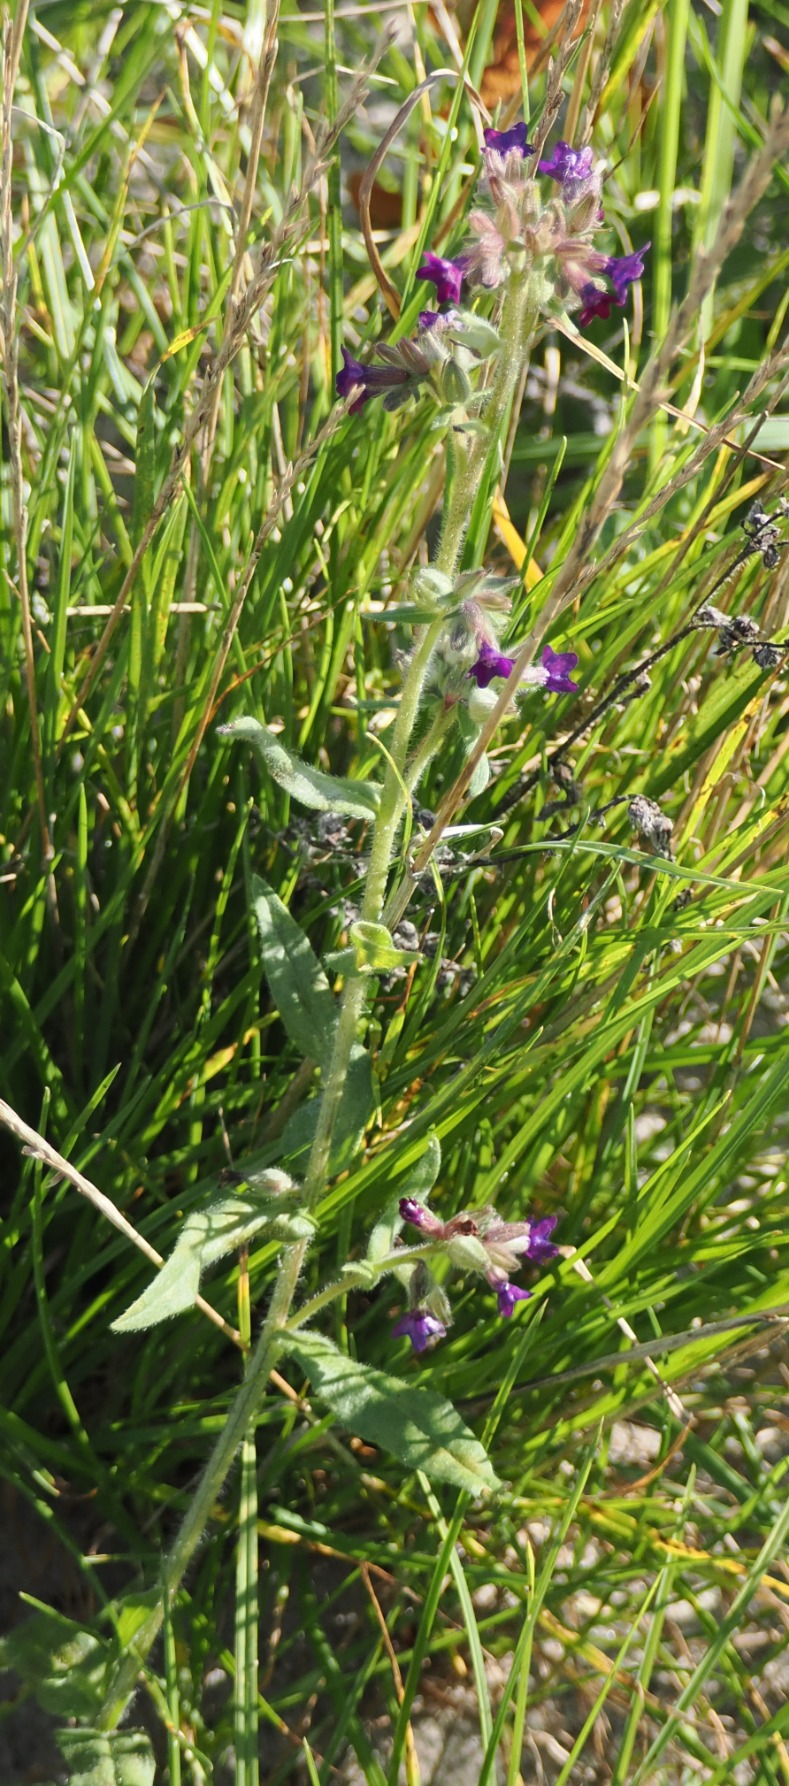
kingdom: Plantae
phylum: Tracheophyta
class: Magnoliopsida
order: Boraginales
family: Boraginaceae
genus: Anchusa
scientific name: Anchusa officinalis
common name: Læge-oksetunge
